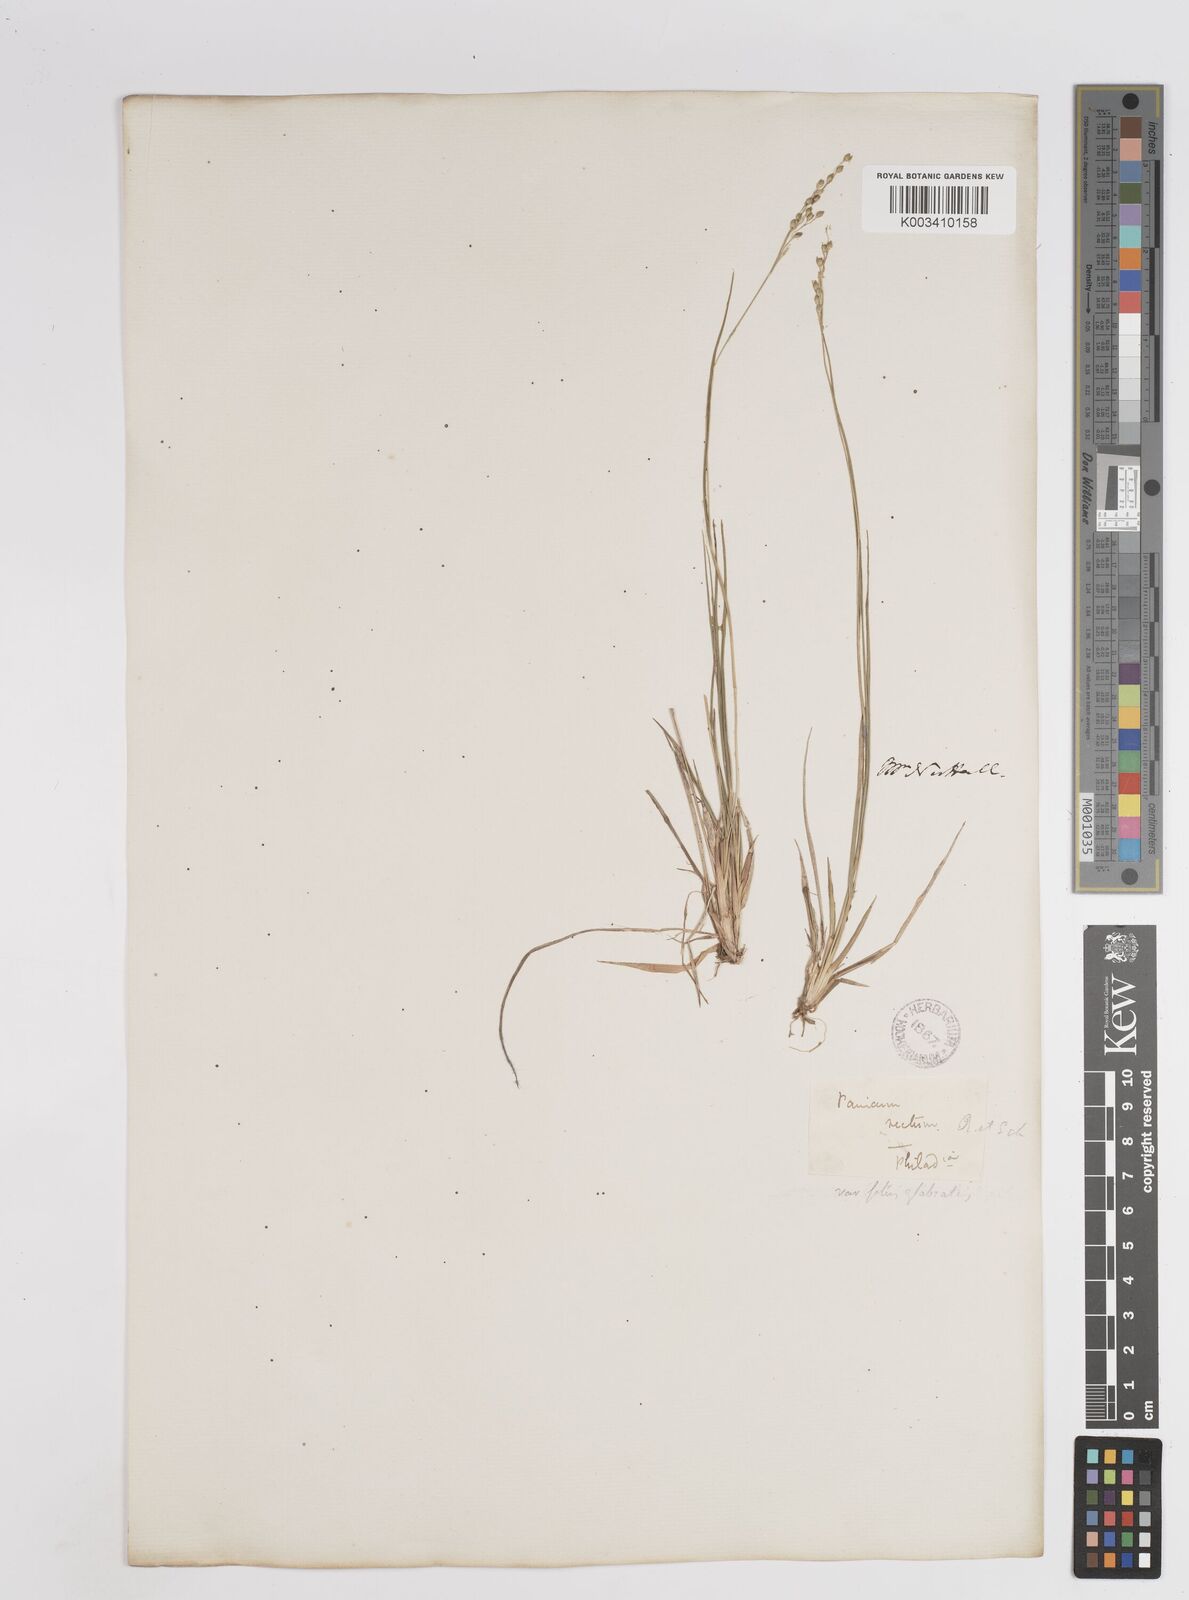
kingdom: Plantae
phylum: Tracheophyta
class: Liliopsida
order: Poales
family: Poaceae
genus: Dichanthelium
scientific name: Dichanthelium depauperatum
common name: Depauperate panicgrass
